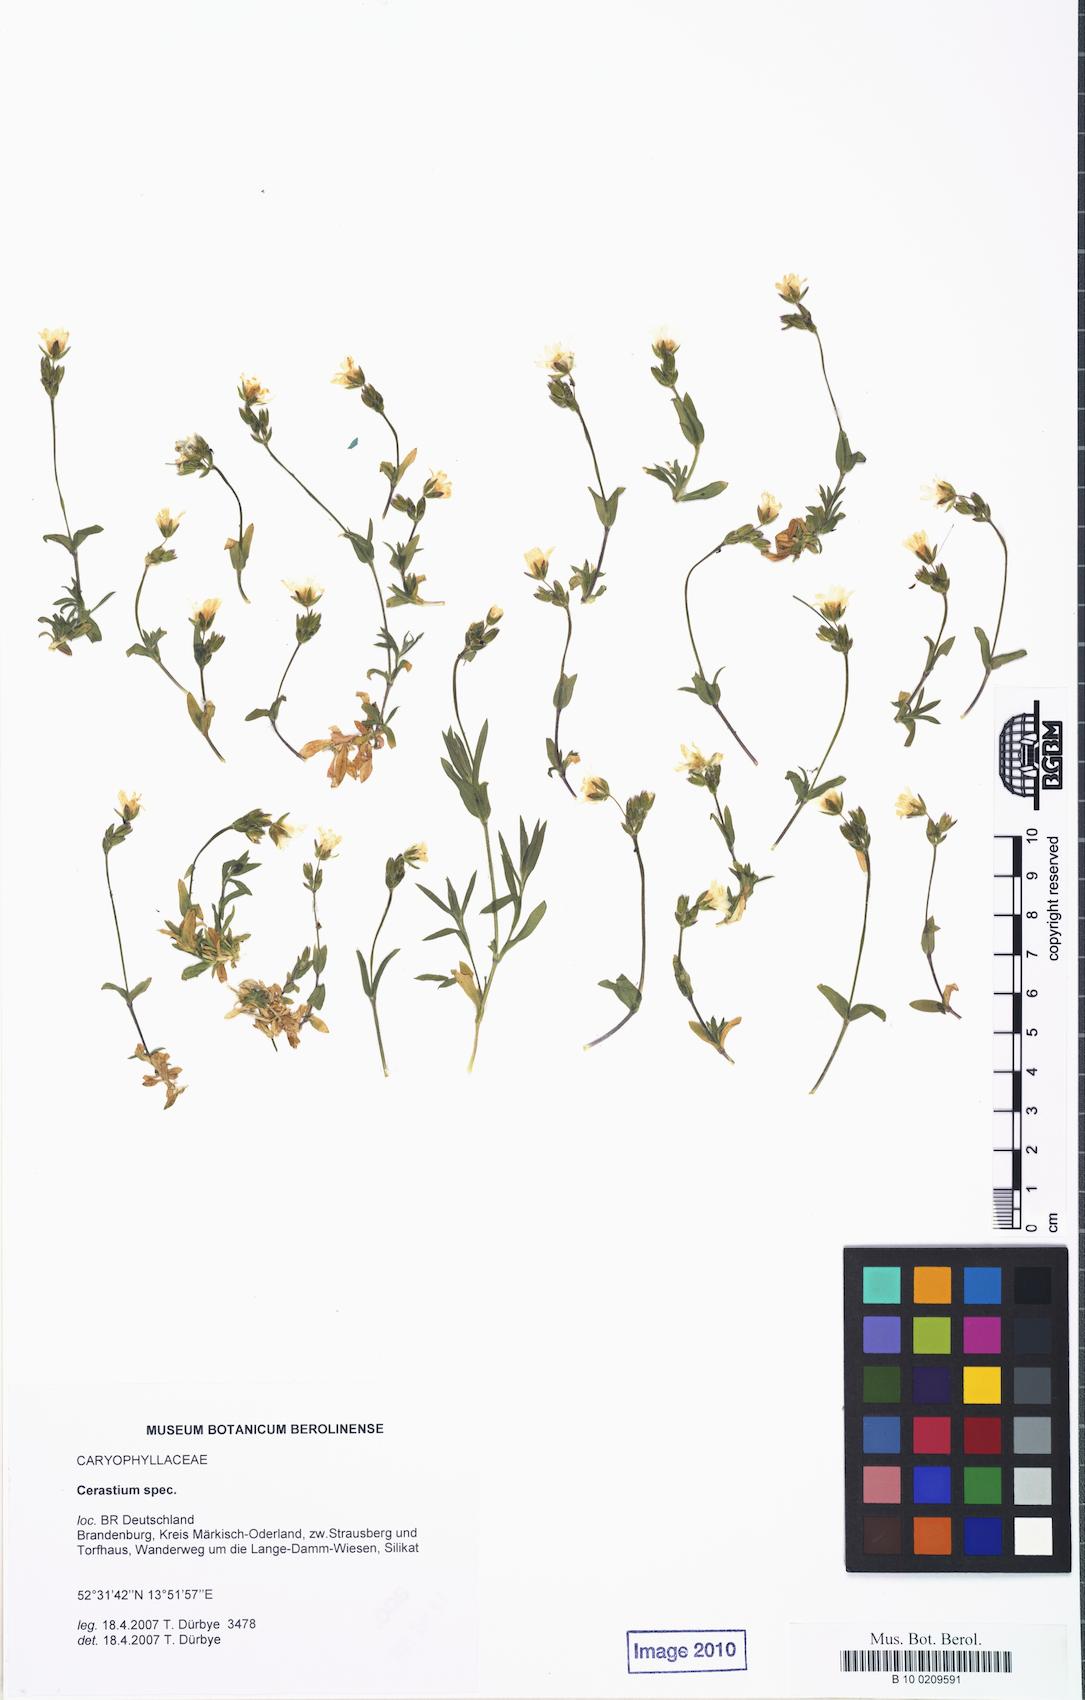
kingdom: Plantae
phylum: Tracheophyta
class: Magnoliopsida
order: Caryophyllales
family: Caryophyllaceae
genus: Cerastium
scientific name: Cerastium arvense
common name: Field mouse-ear
